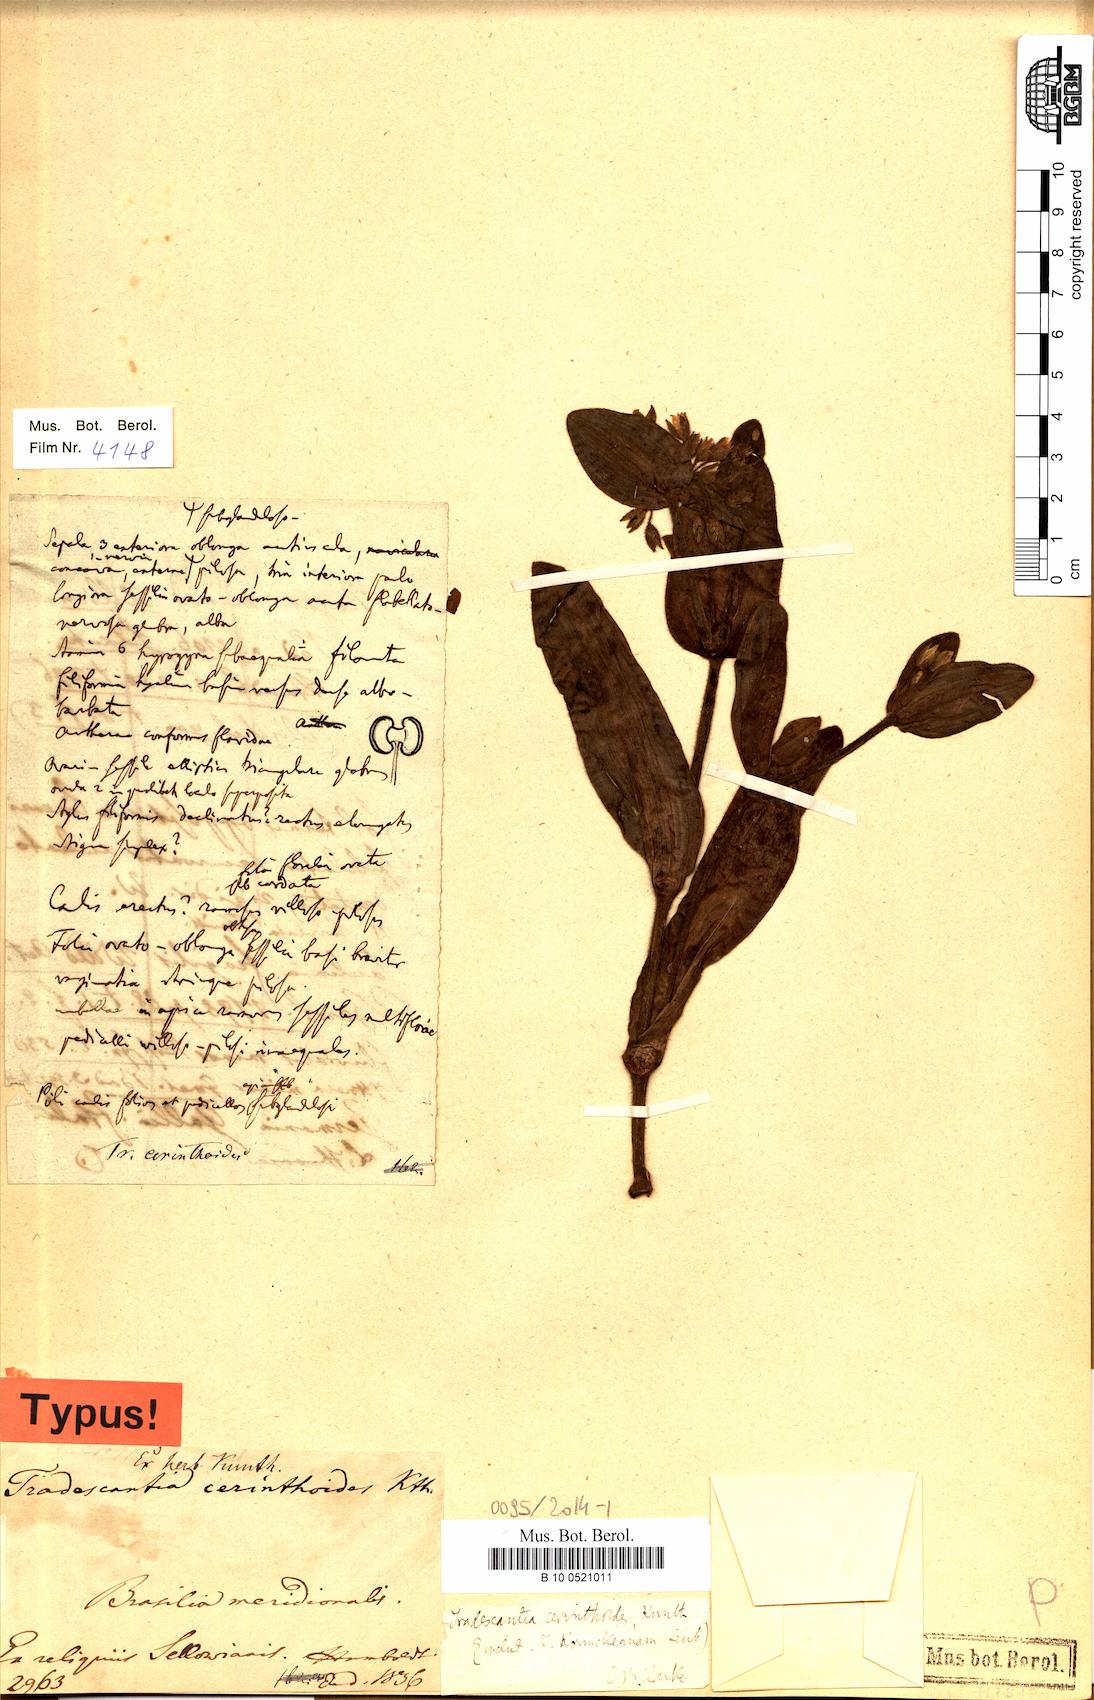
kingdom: Plantae
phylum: Tracheophyta
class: Liliopsida
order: Commelinales
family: Commelinaceae
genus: Tradescantia
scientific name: Tradescantia cerinthoides
